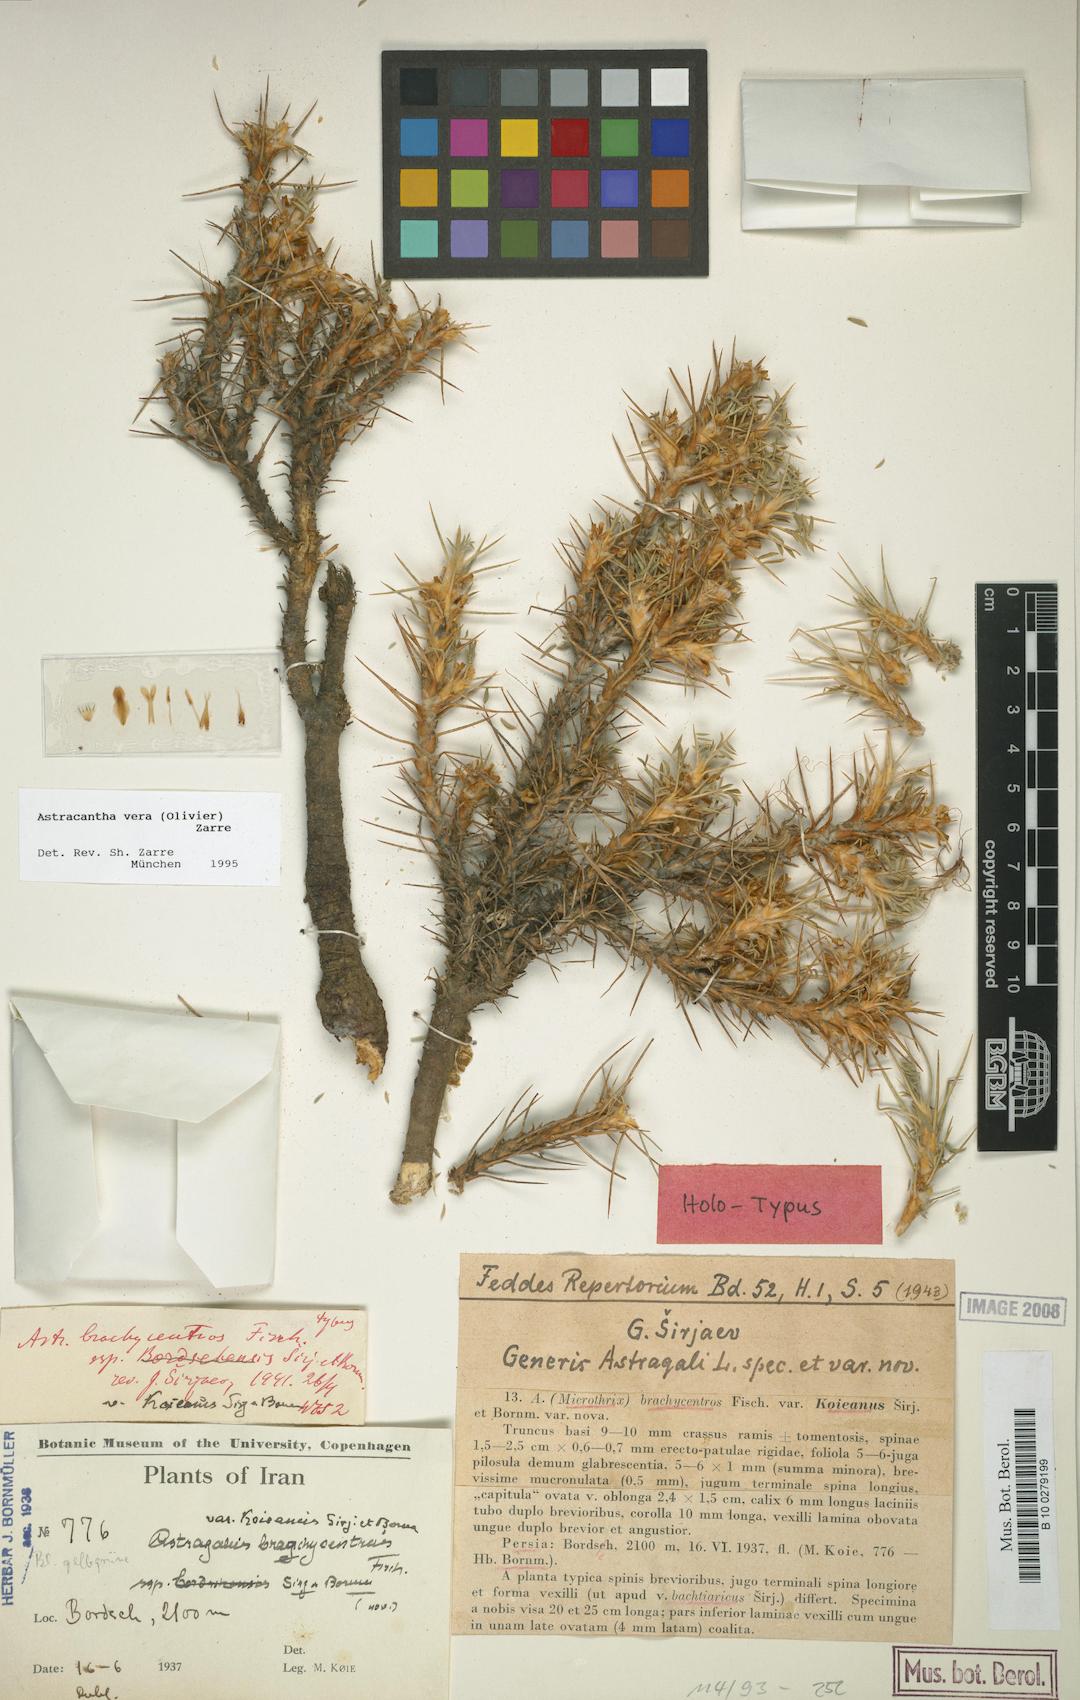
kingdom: Chromista
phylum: Cercozoa
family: Astracanthidae
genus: Astracantha
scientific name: Astracantha
